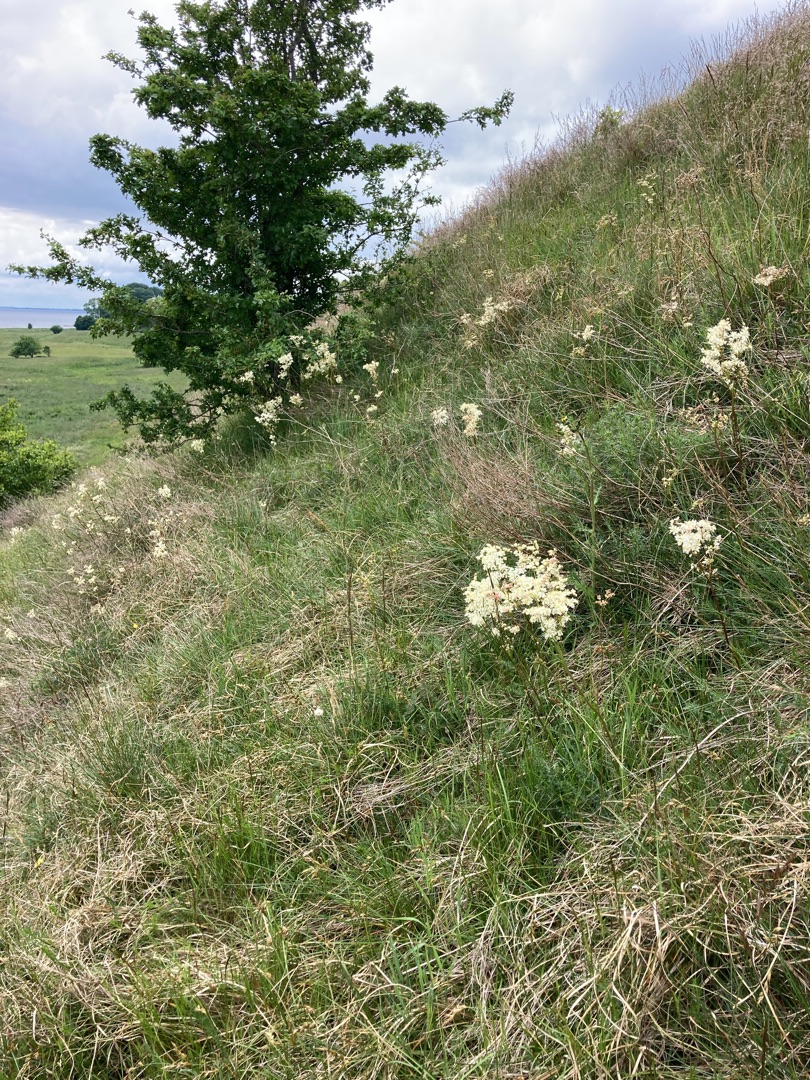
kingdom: Plantae
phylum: Tracheophyta
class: Magnoliopsida
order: Rosales
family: Rosaceae
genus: Filipendula
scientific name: Filipendula vulgaris
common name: Knoldet mjødurt
